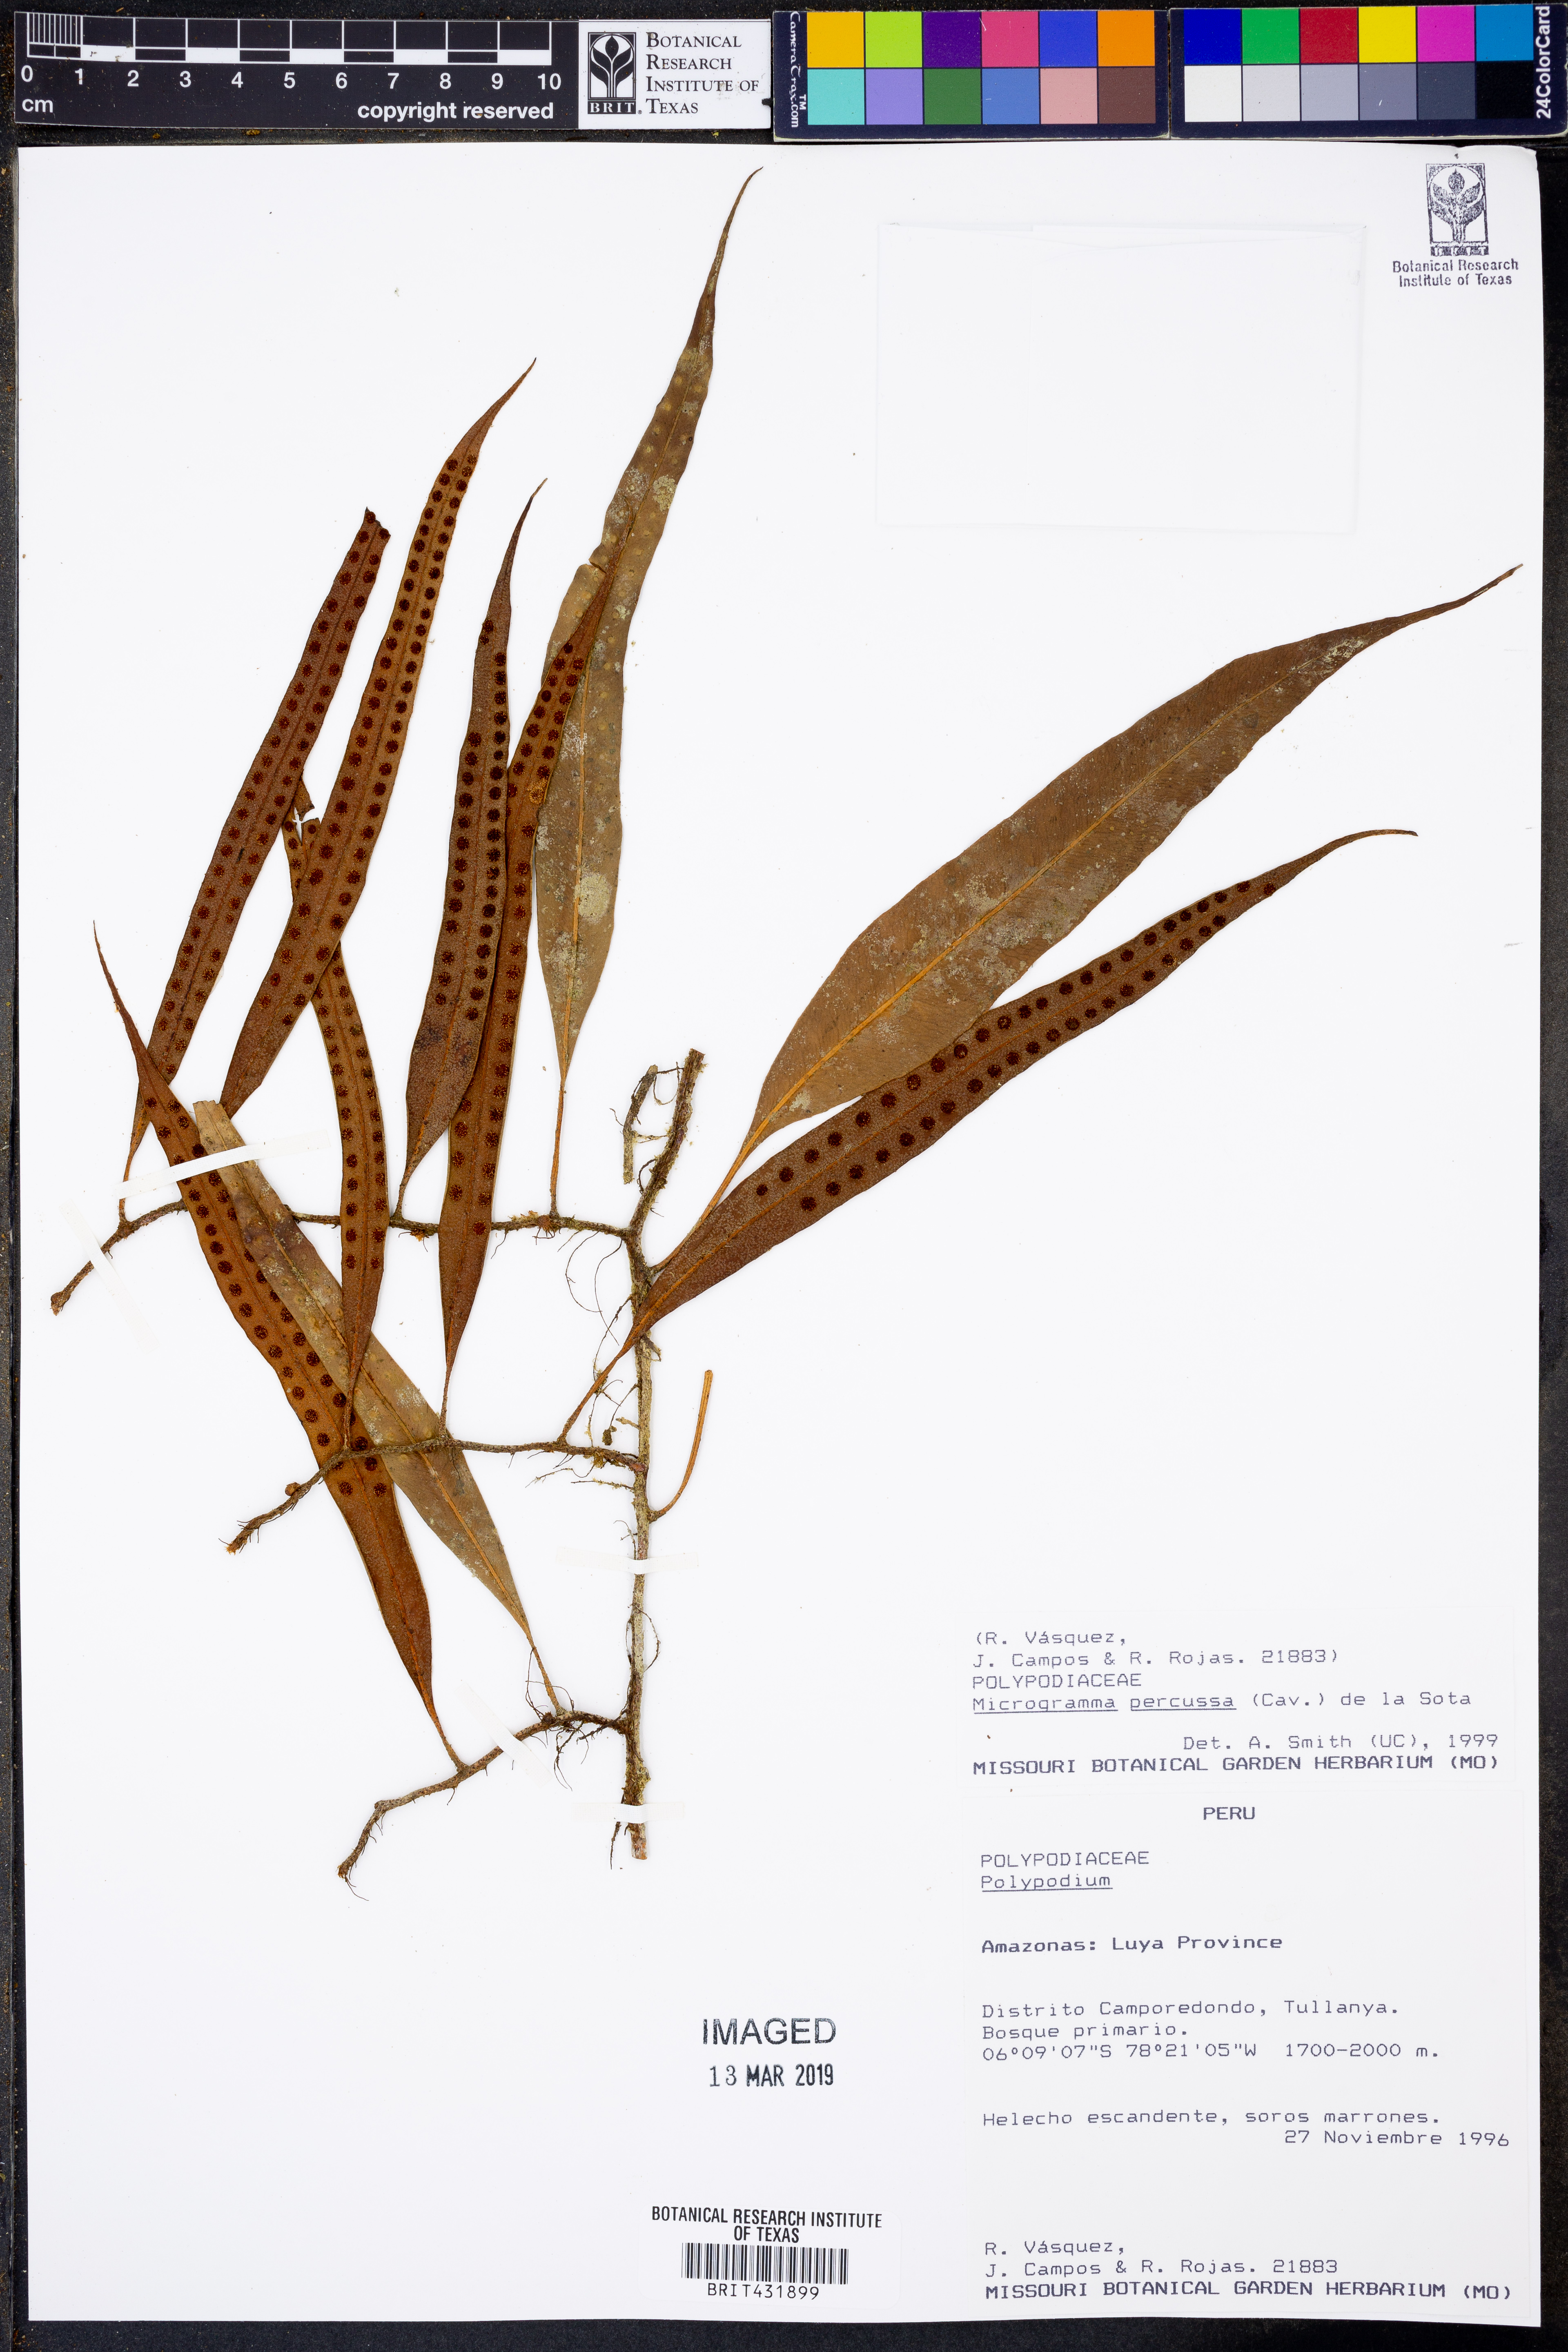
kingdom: Plantae
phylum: Tracheophyta
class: Polypodiopsida
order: Polypodiales
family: Polypodiaceae
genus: Microgramma
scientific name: Microgramma percussa
